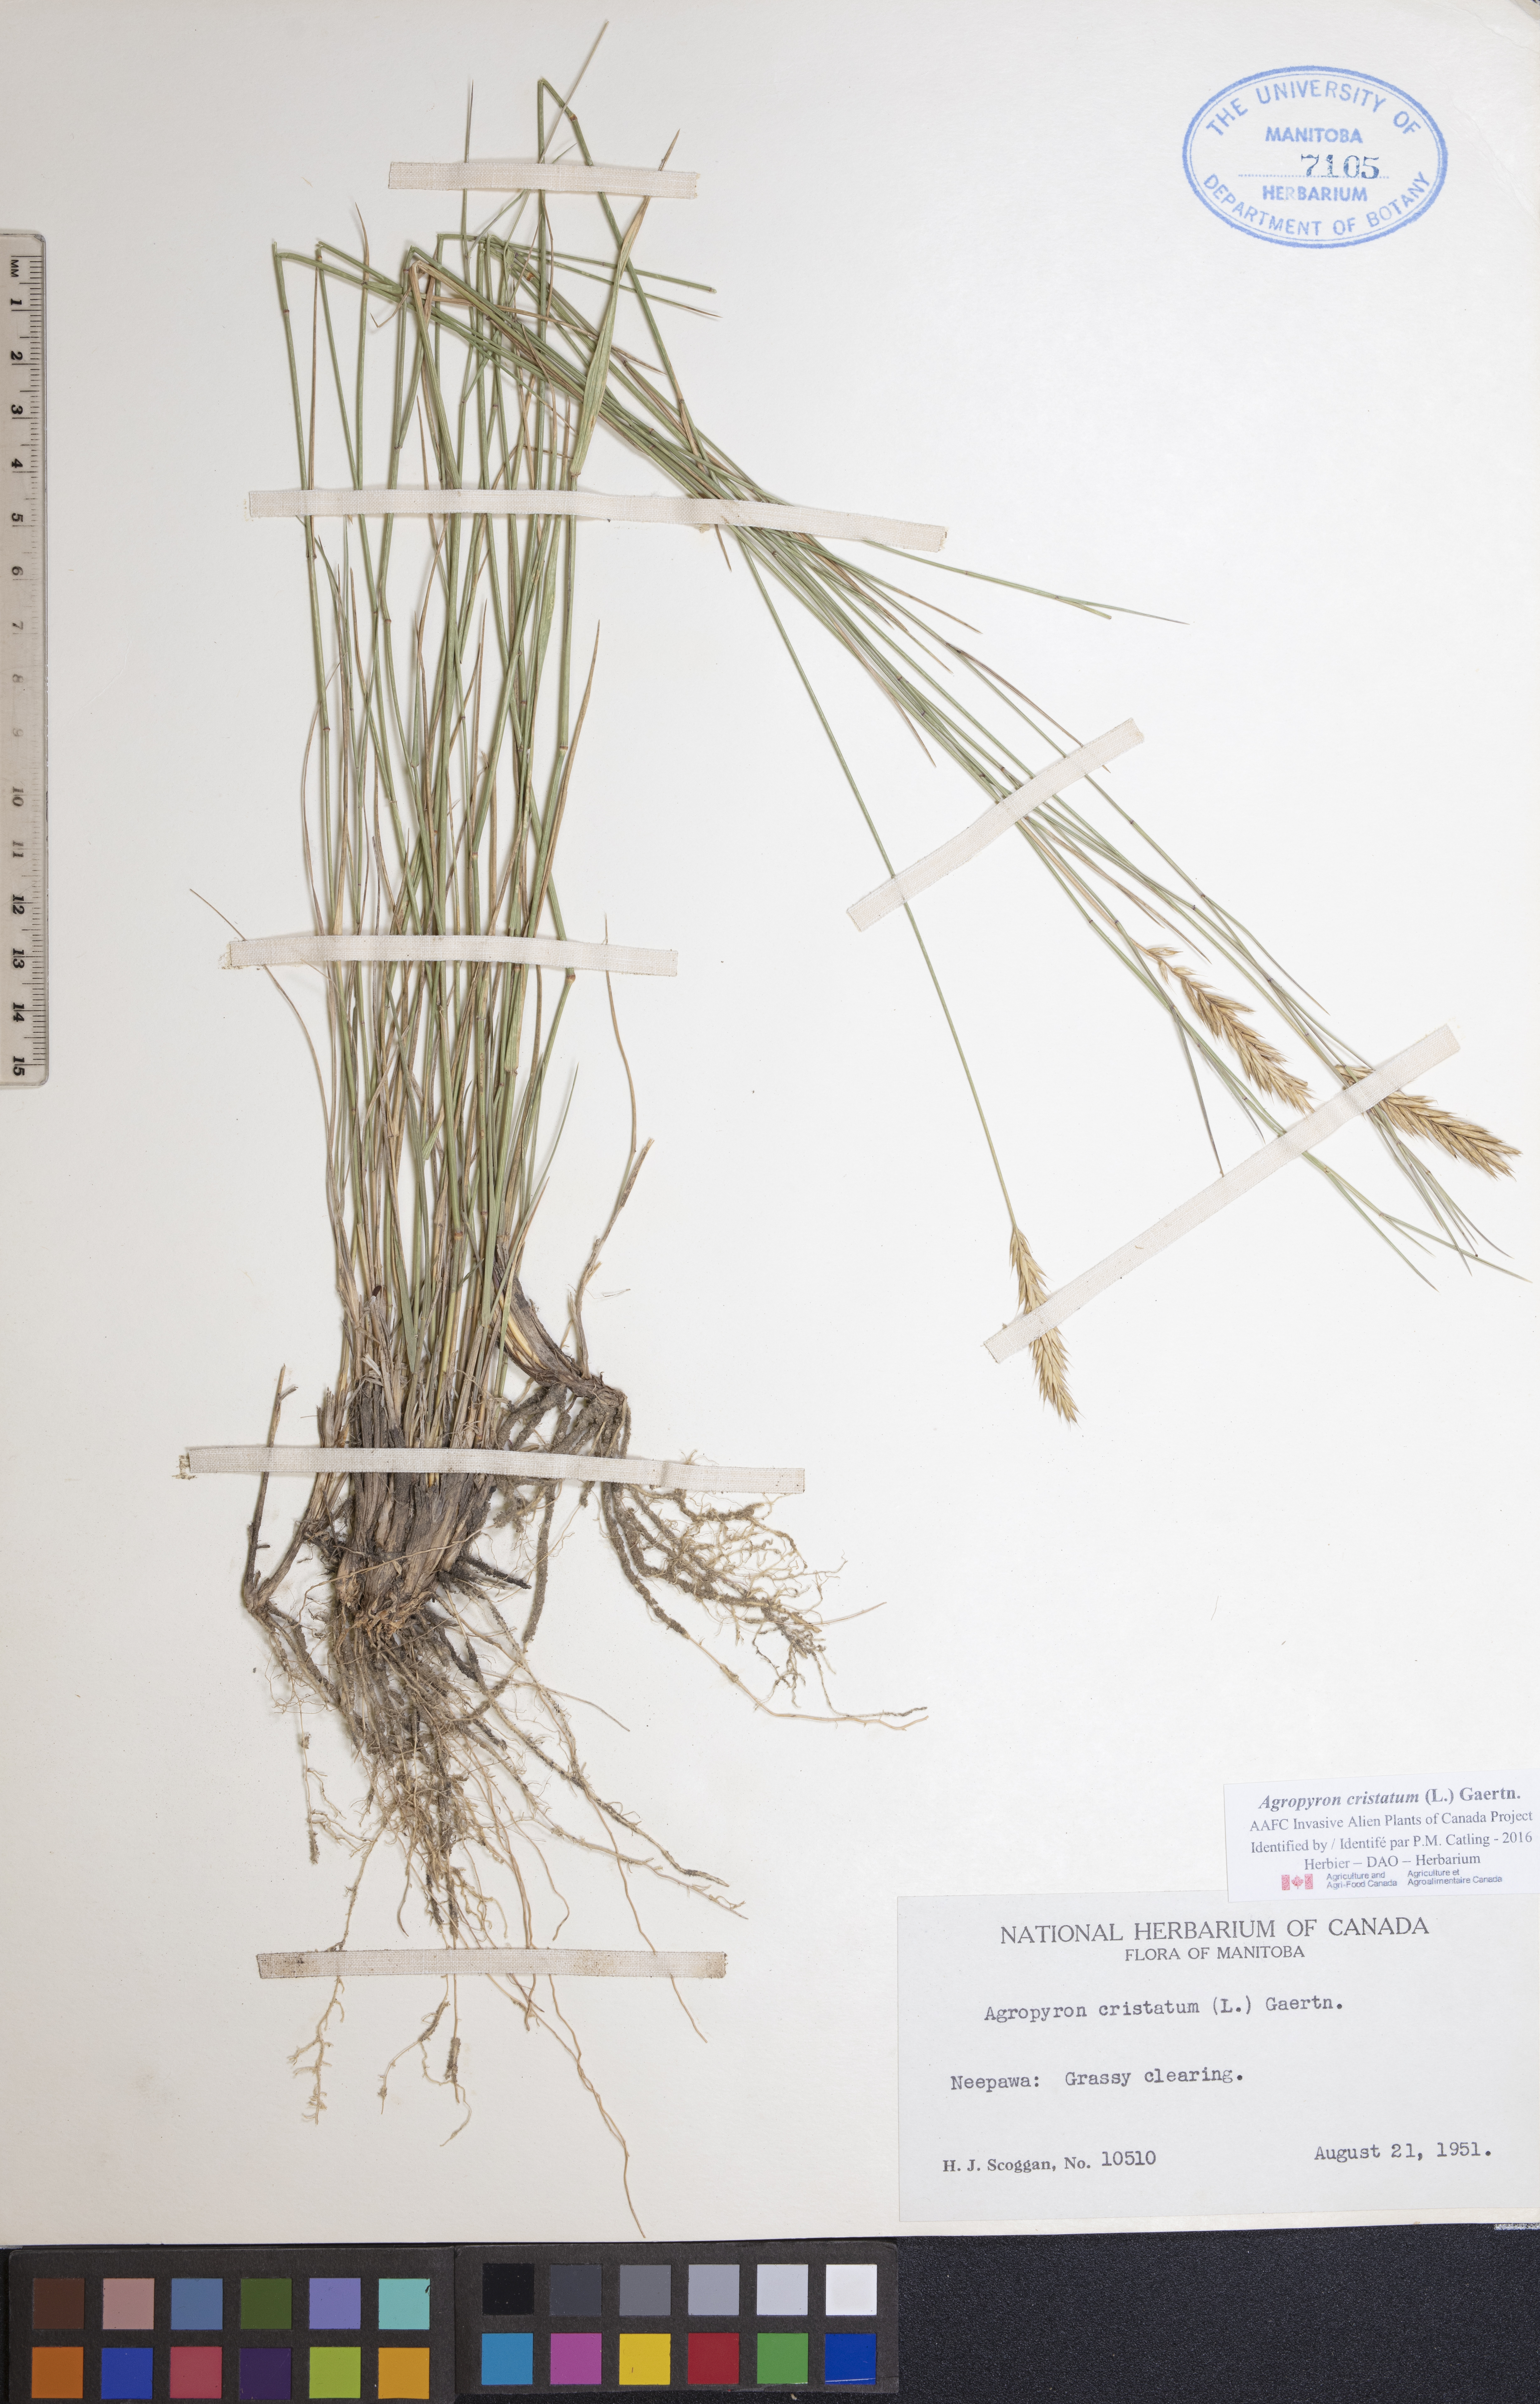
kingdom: Plantae
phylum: Tracheophyta
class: Liliopsida
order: Poales
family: Poaceae
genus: Agropyron
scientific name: Agropyron cristatum
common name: Crested wheatgrass
